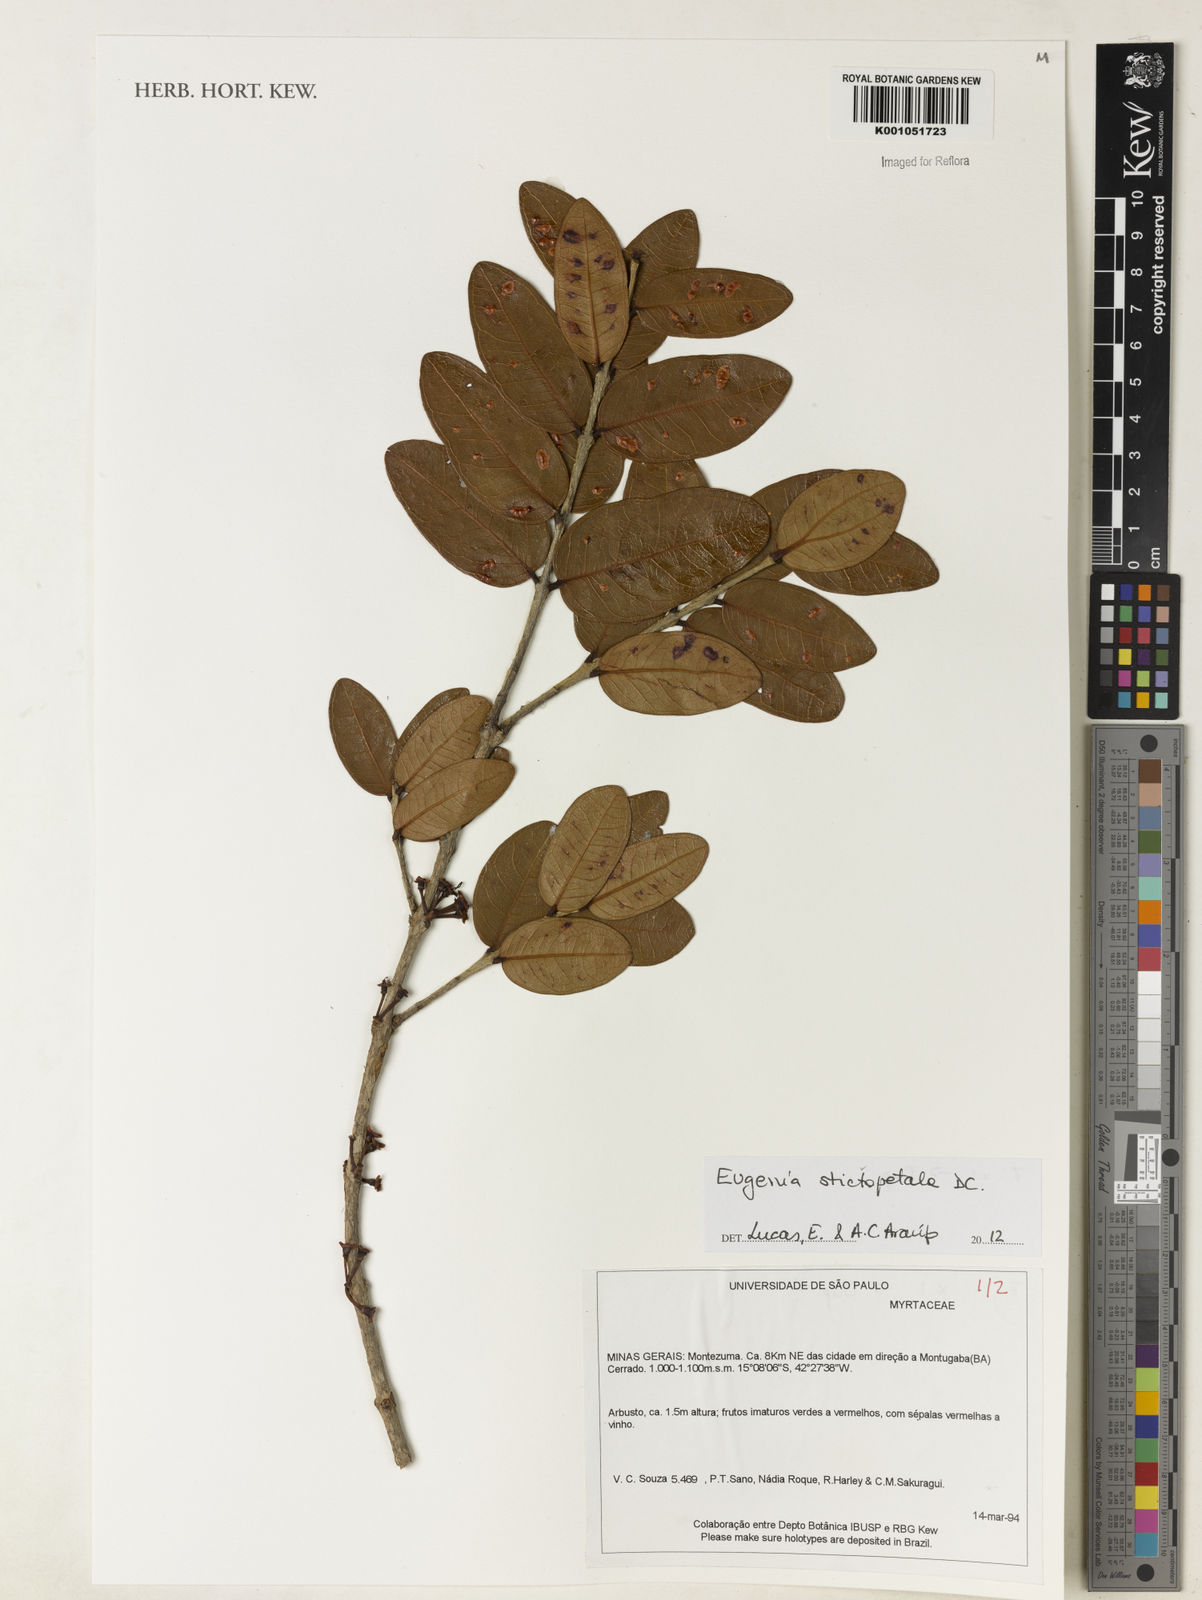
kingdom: Plantae
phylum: Tracheophyta
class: Magnoliopsida
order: Myrtales
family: Myrtaceae
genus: Eugenia
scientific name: Eugenia stictopetala
